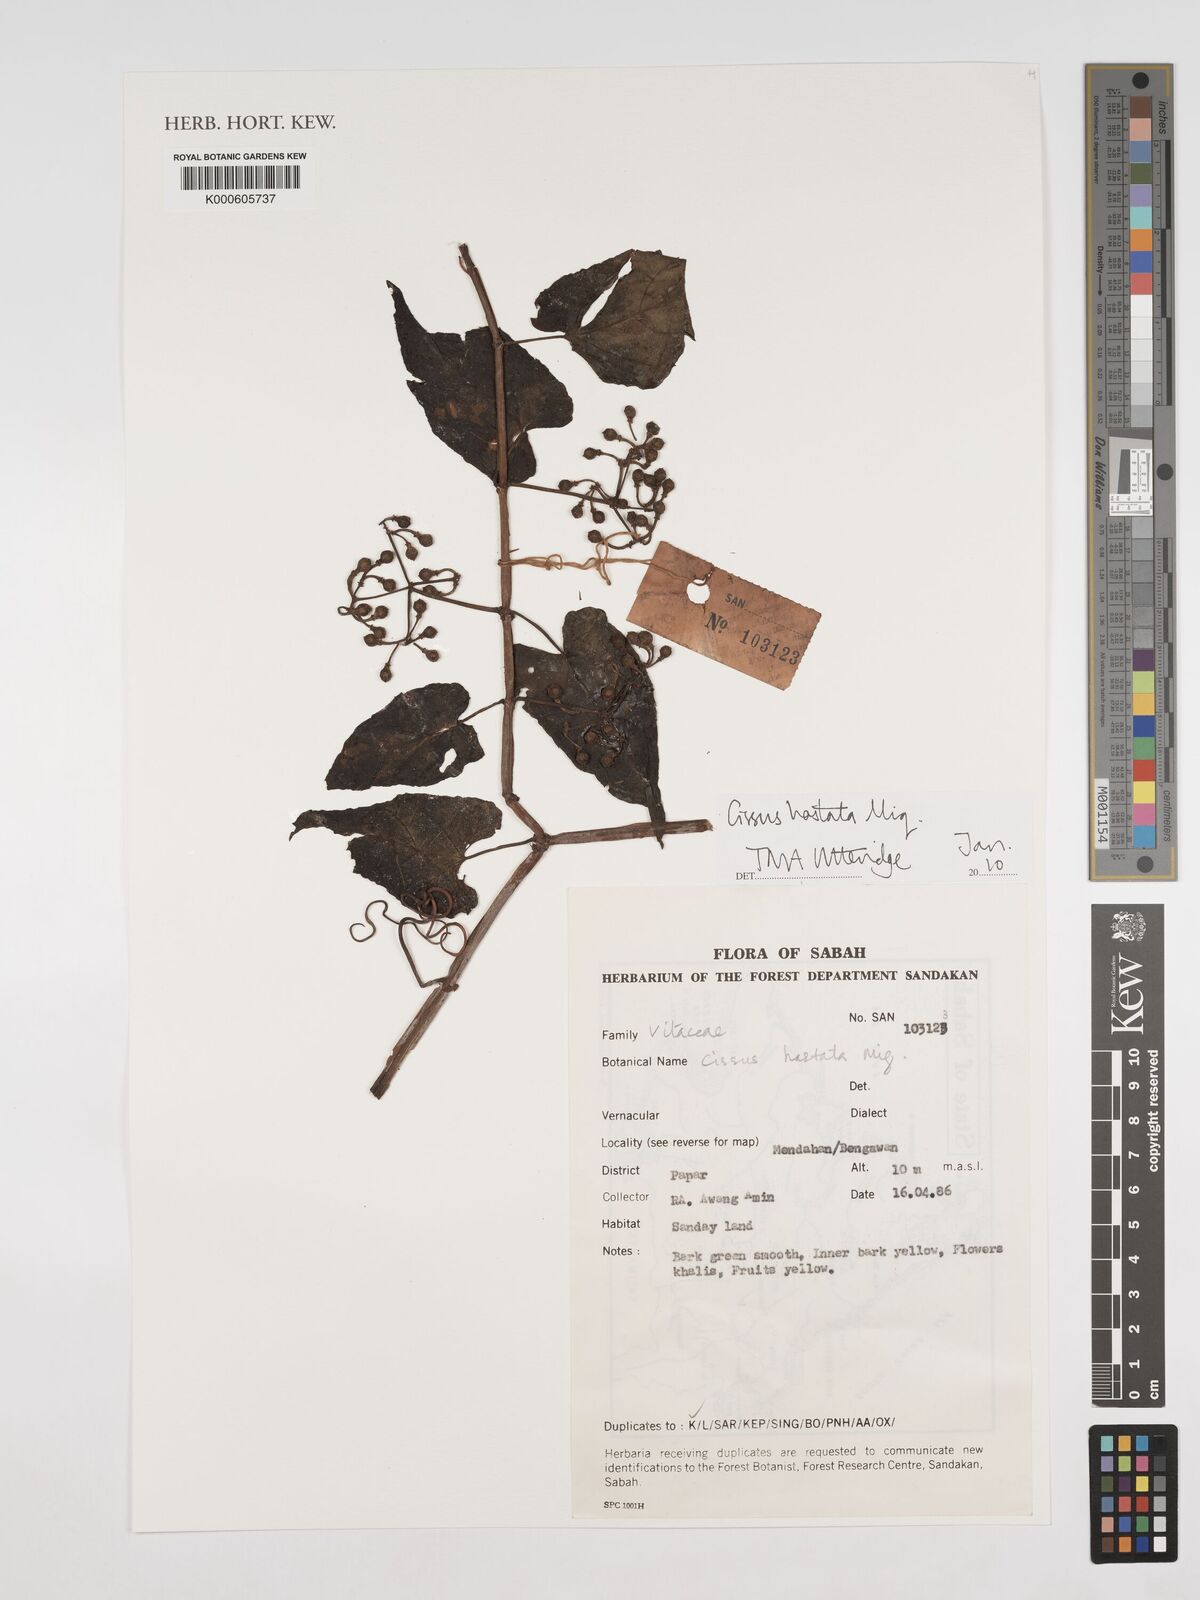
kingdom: Plantae
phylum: Tracheophyta
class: Magnoliopsida
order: Vitales
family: Vitaceae
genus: Cissus
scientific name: Cissus hastata
